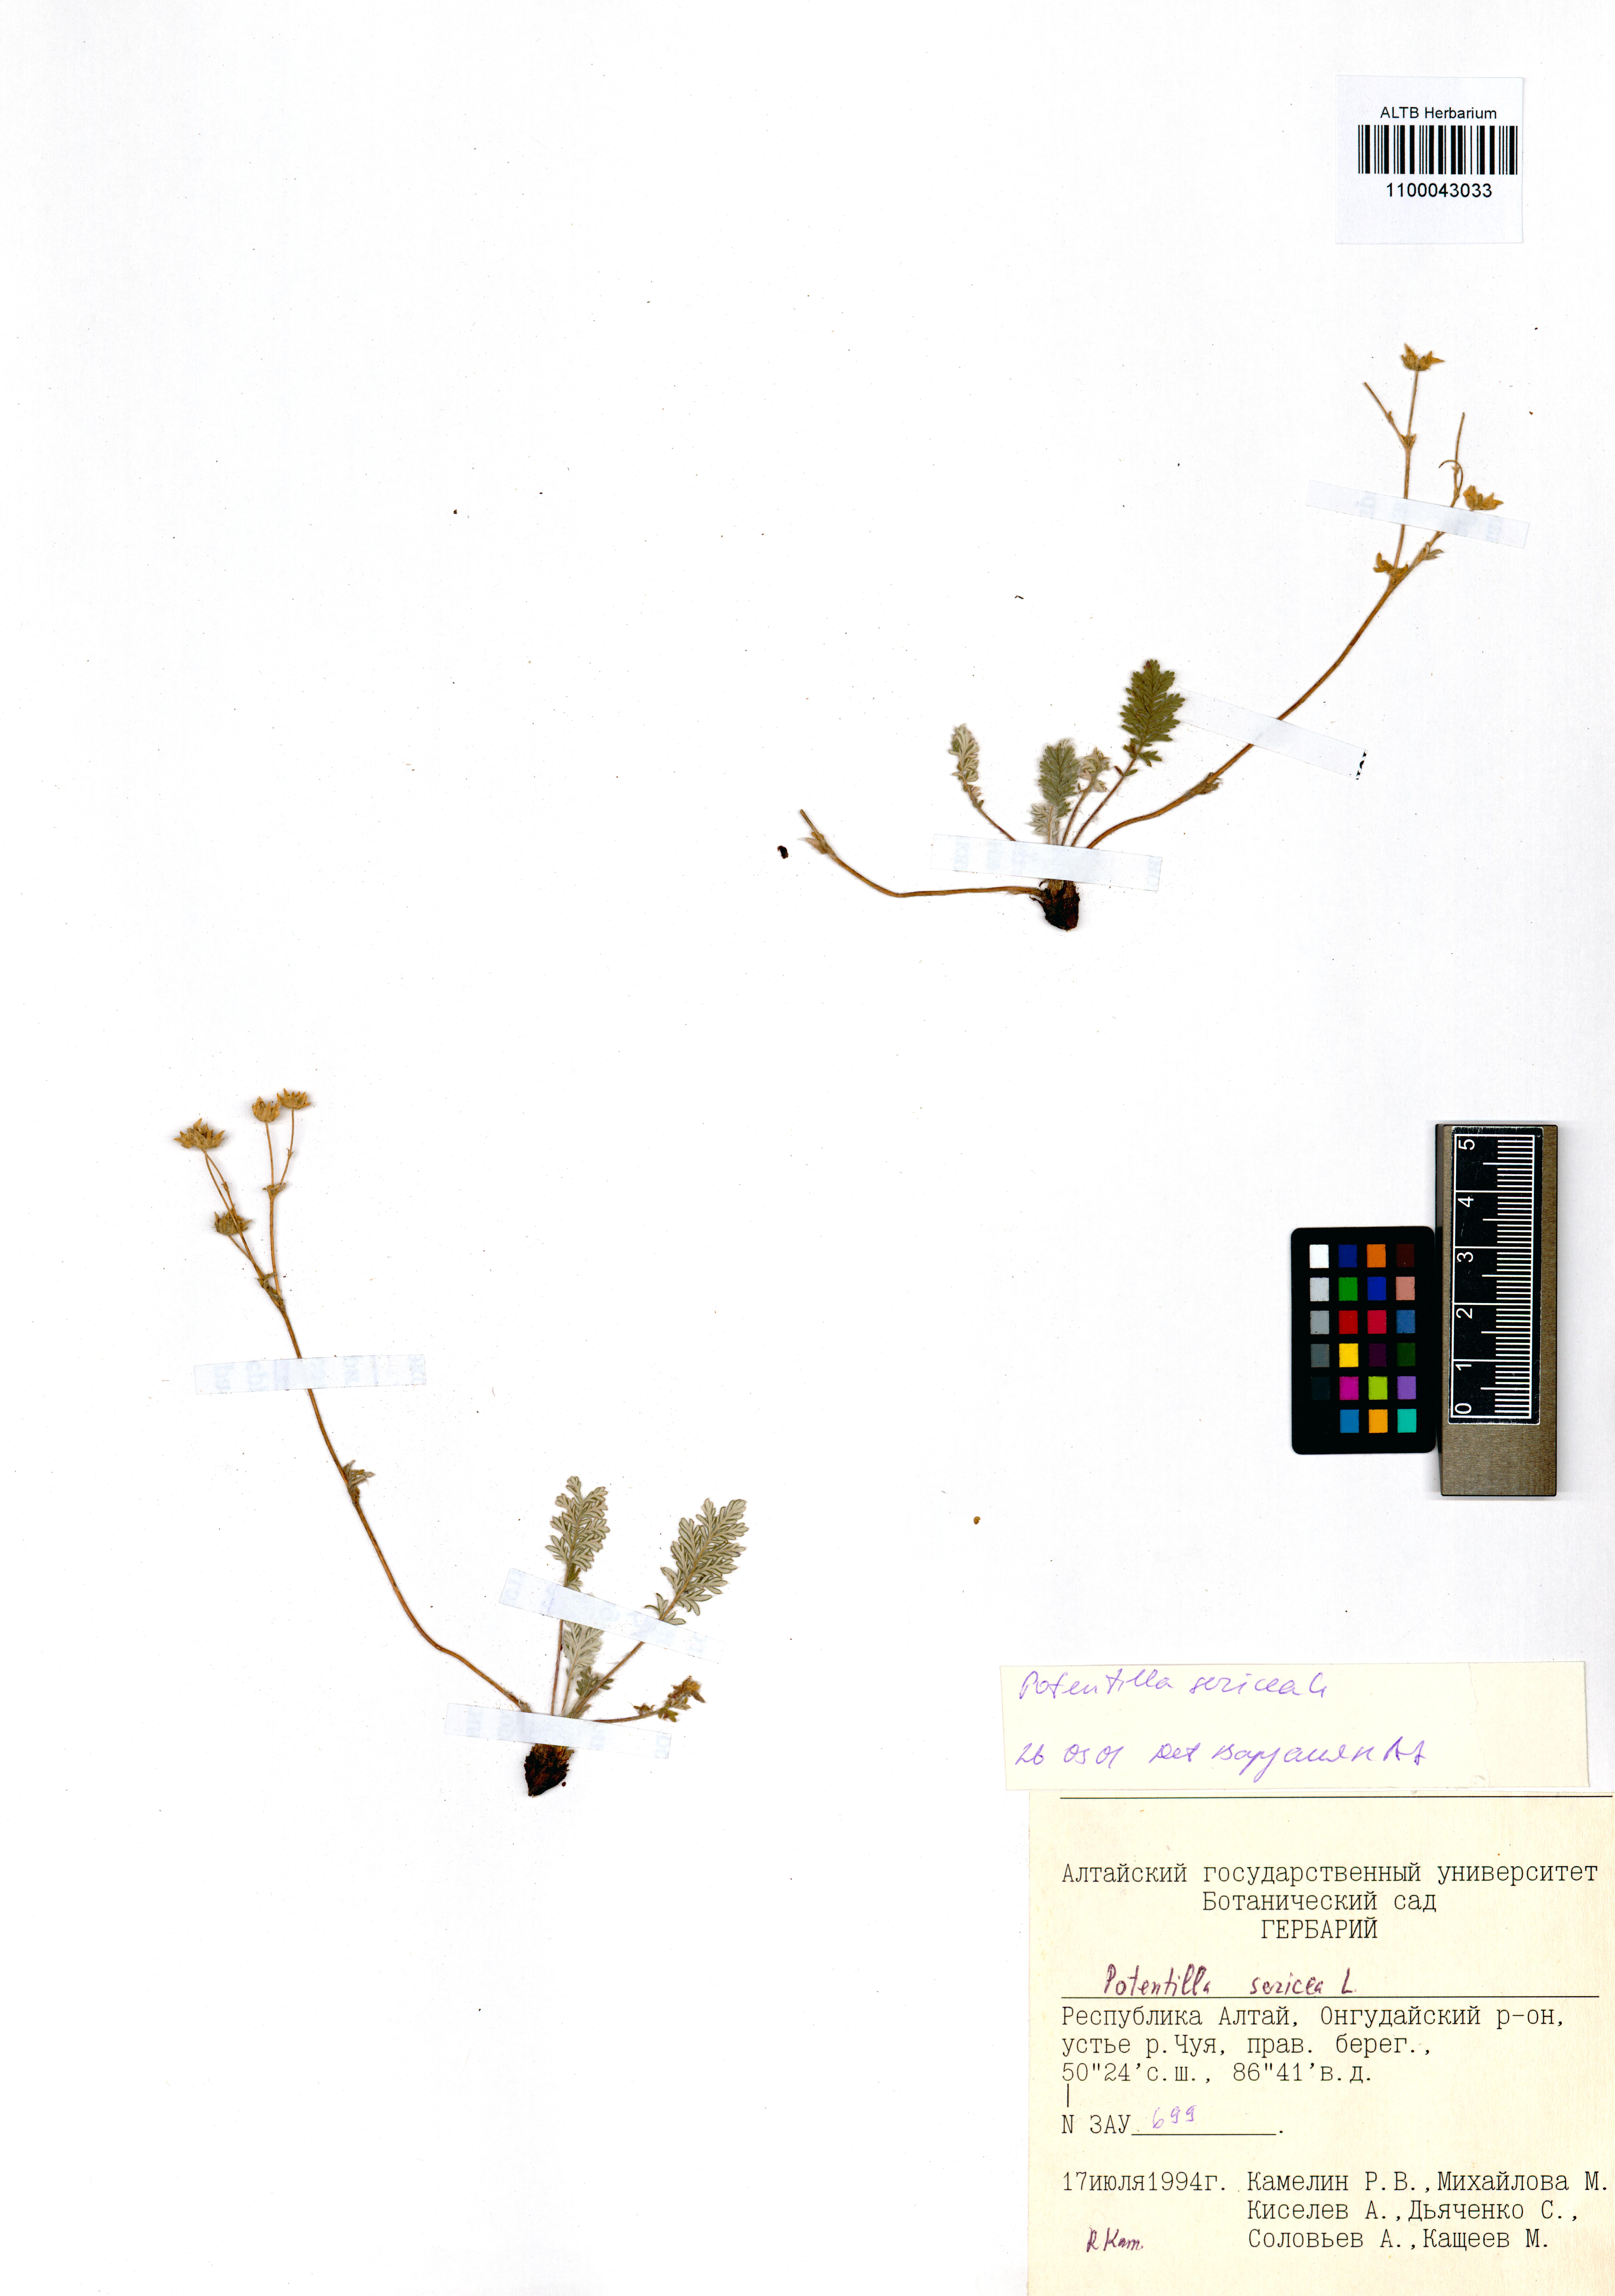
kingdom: Plantae
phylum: Tracheophyta
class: Magnoliopsida
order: Rosales
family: Rosaceae
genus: Potentilla
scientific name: Potentilla sericea
